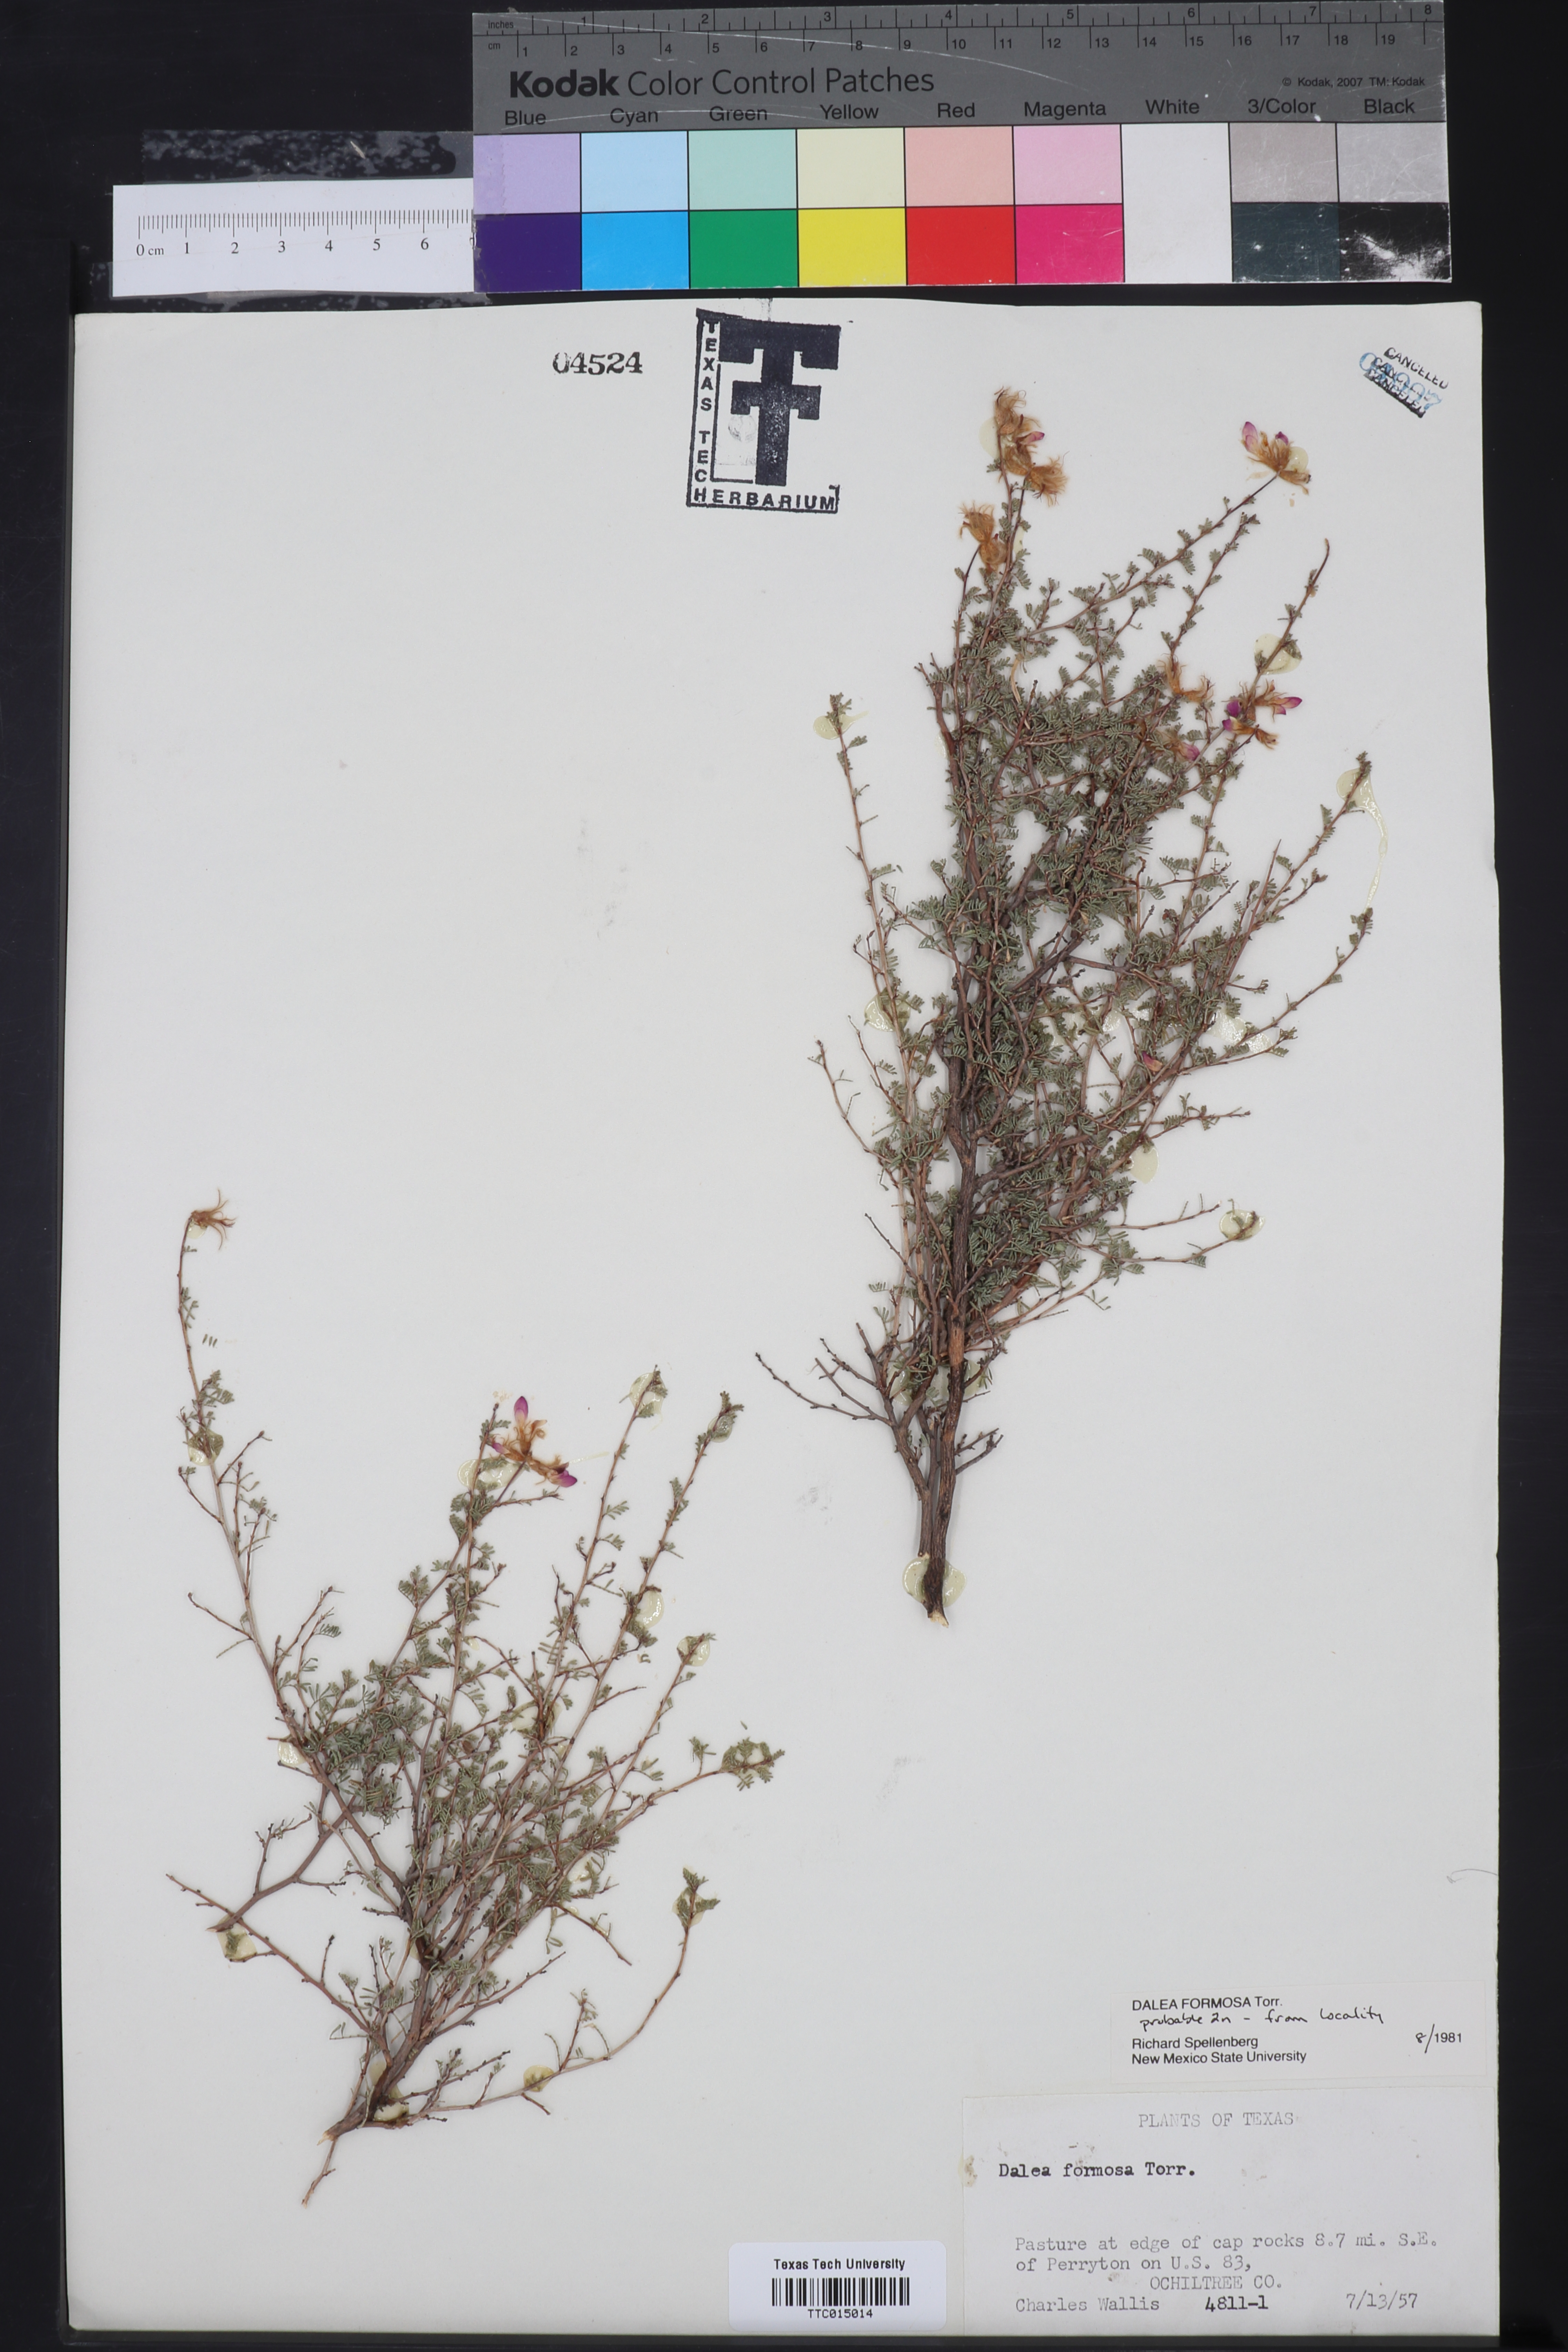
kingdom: Plantae
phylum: Tracheophyta
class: Magnoliopsida
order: Fabales
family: Fabaceae
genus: Dalea
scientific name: Dalea formosa
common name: Feather-plume dalea
